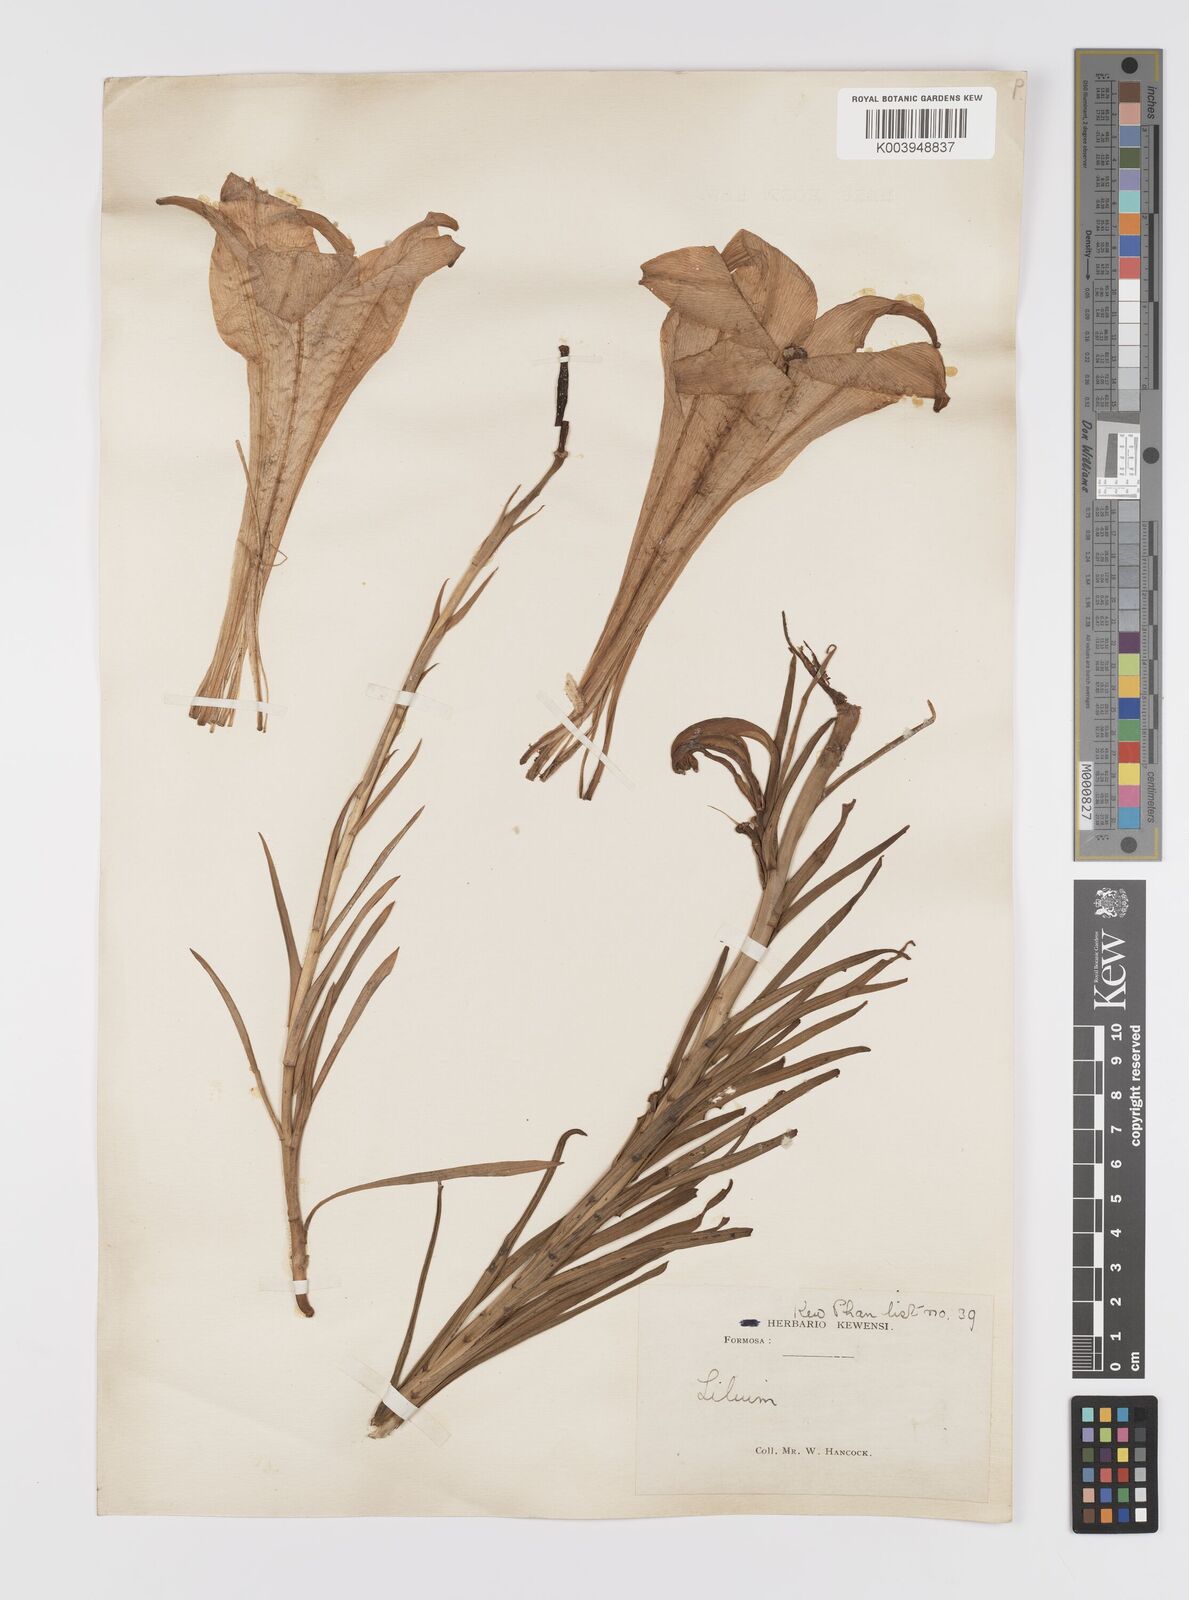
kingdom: Plantae
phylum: Tracheophyta
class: Liliopsida
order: Liliales
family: Liliaceae
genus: Lilium
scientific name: Lilium formosanum
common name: Formosa lily
